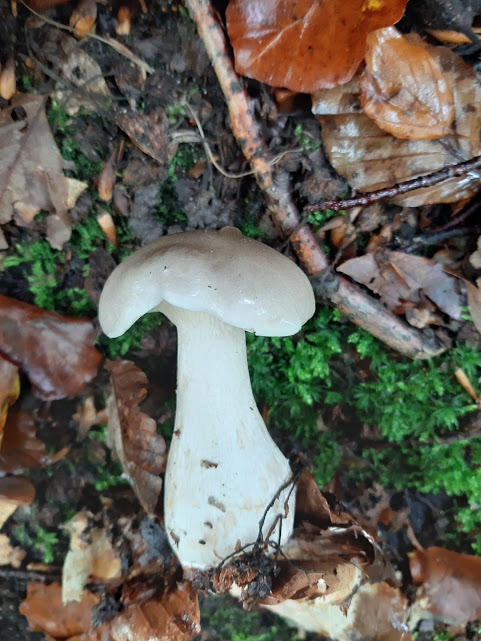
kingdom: Fungi
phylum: Basidiomycota
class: Agaricomycetes
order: Agaricales
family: Tricholomataceae
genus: Clitocybe
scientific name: Clitocybe nebularis
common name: tåge-tragthat
